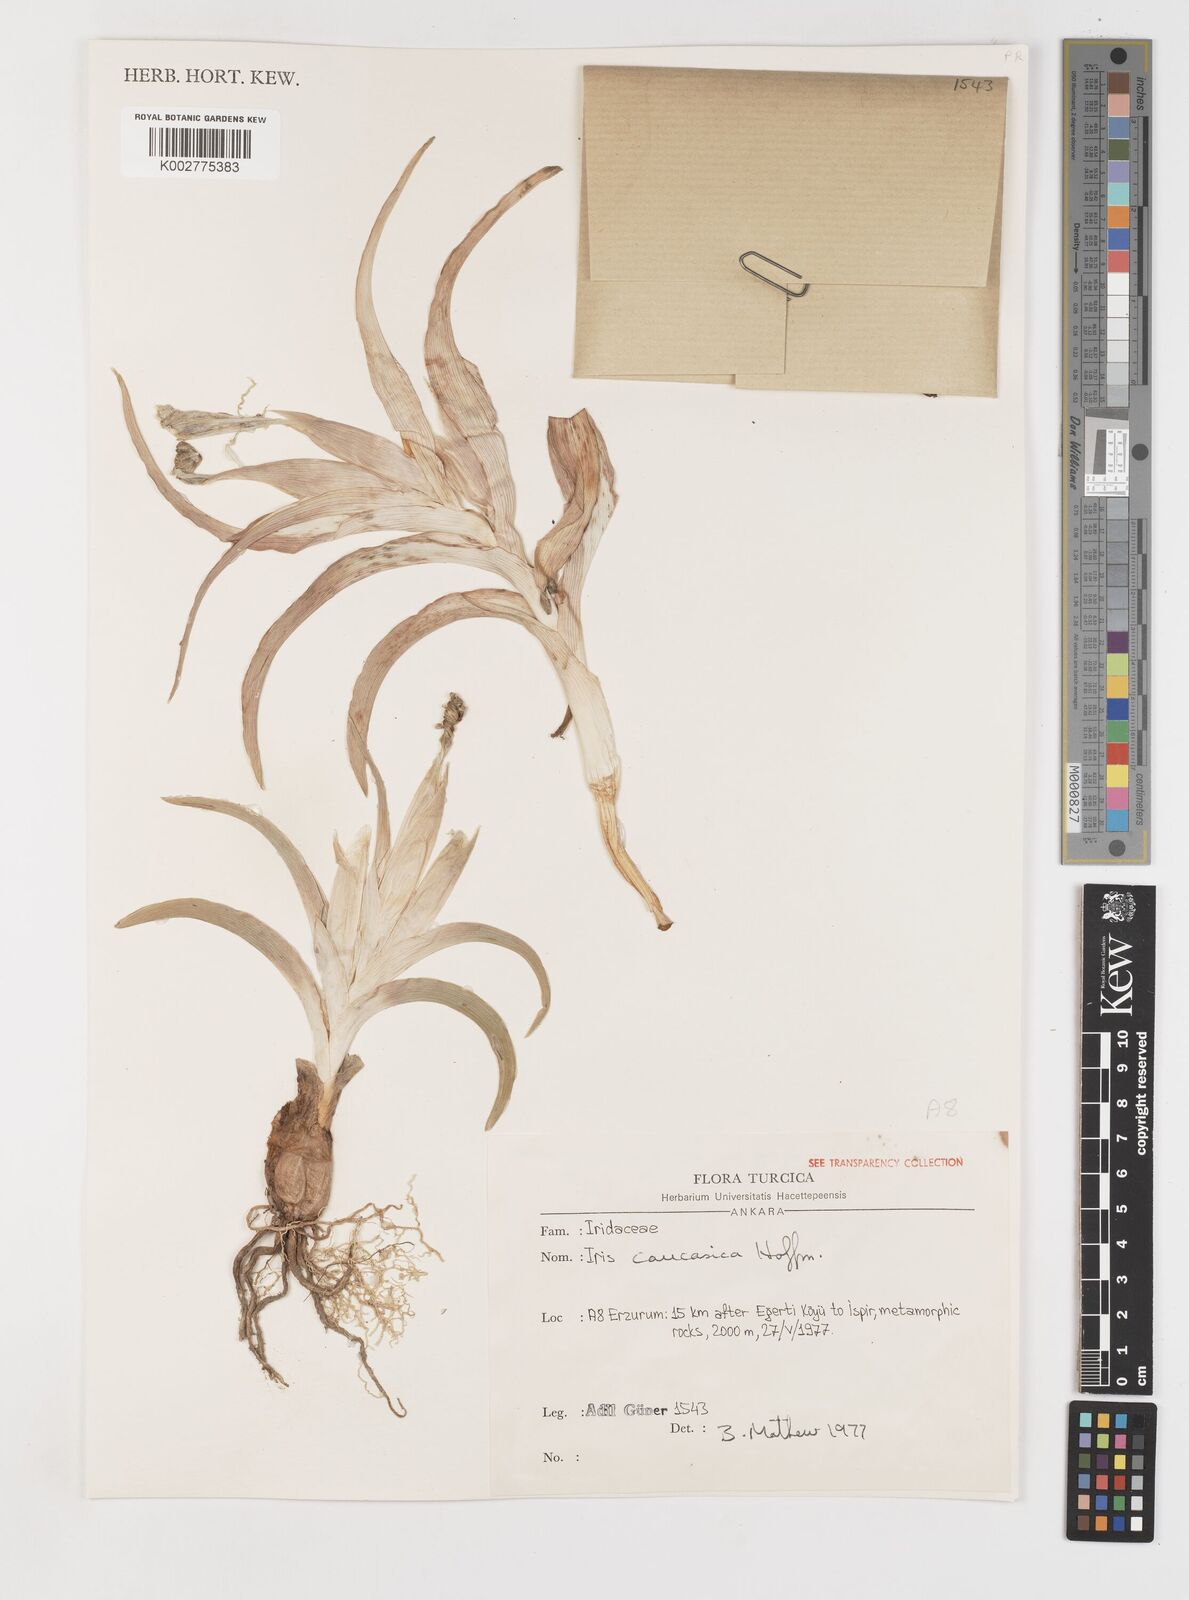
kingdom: Plantae
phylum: Tracheophyta
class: Liliopsida
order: Asparagales
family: Iridaceae
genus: Iris
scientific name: Iris caucasica
